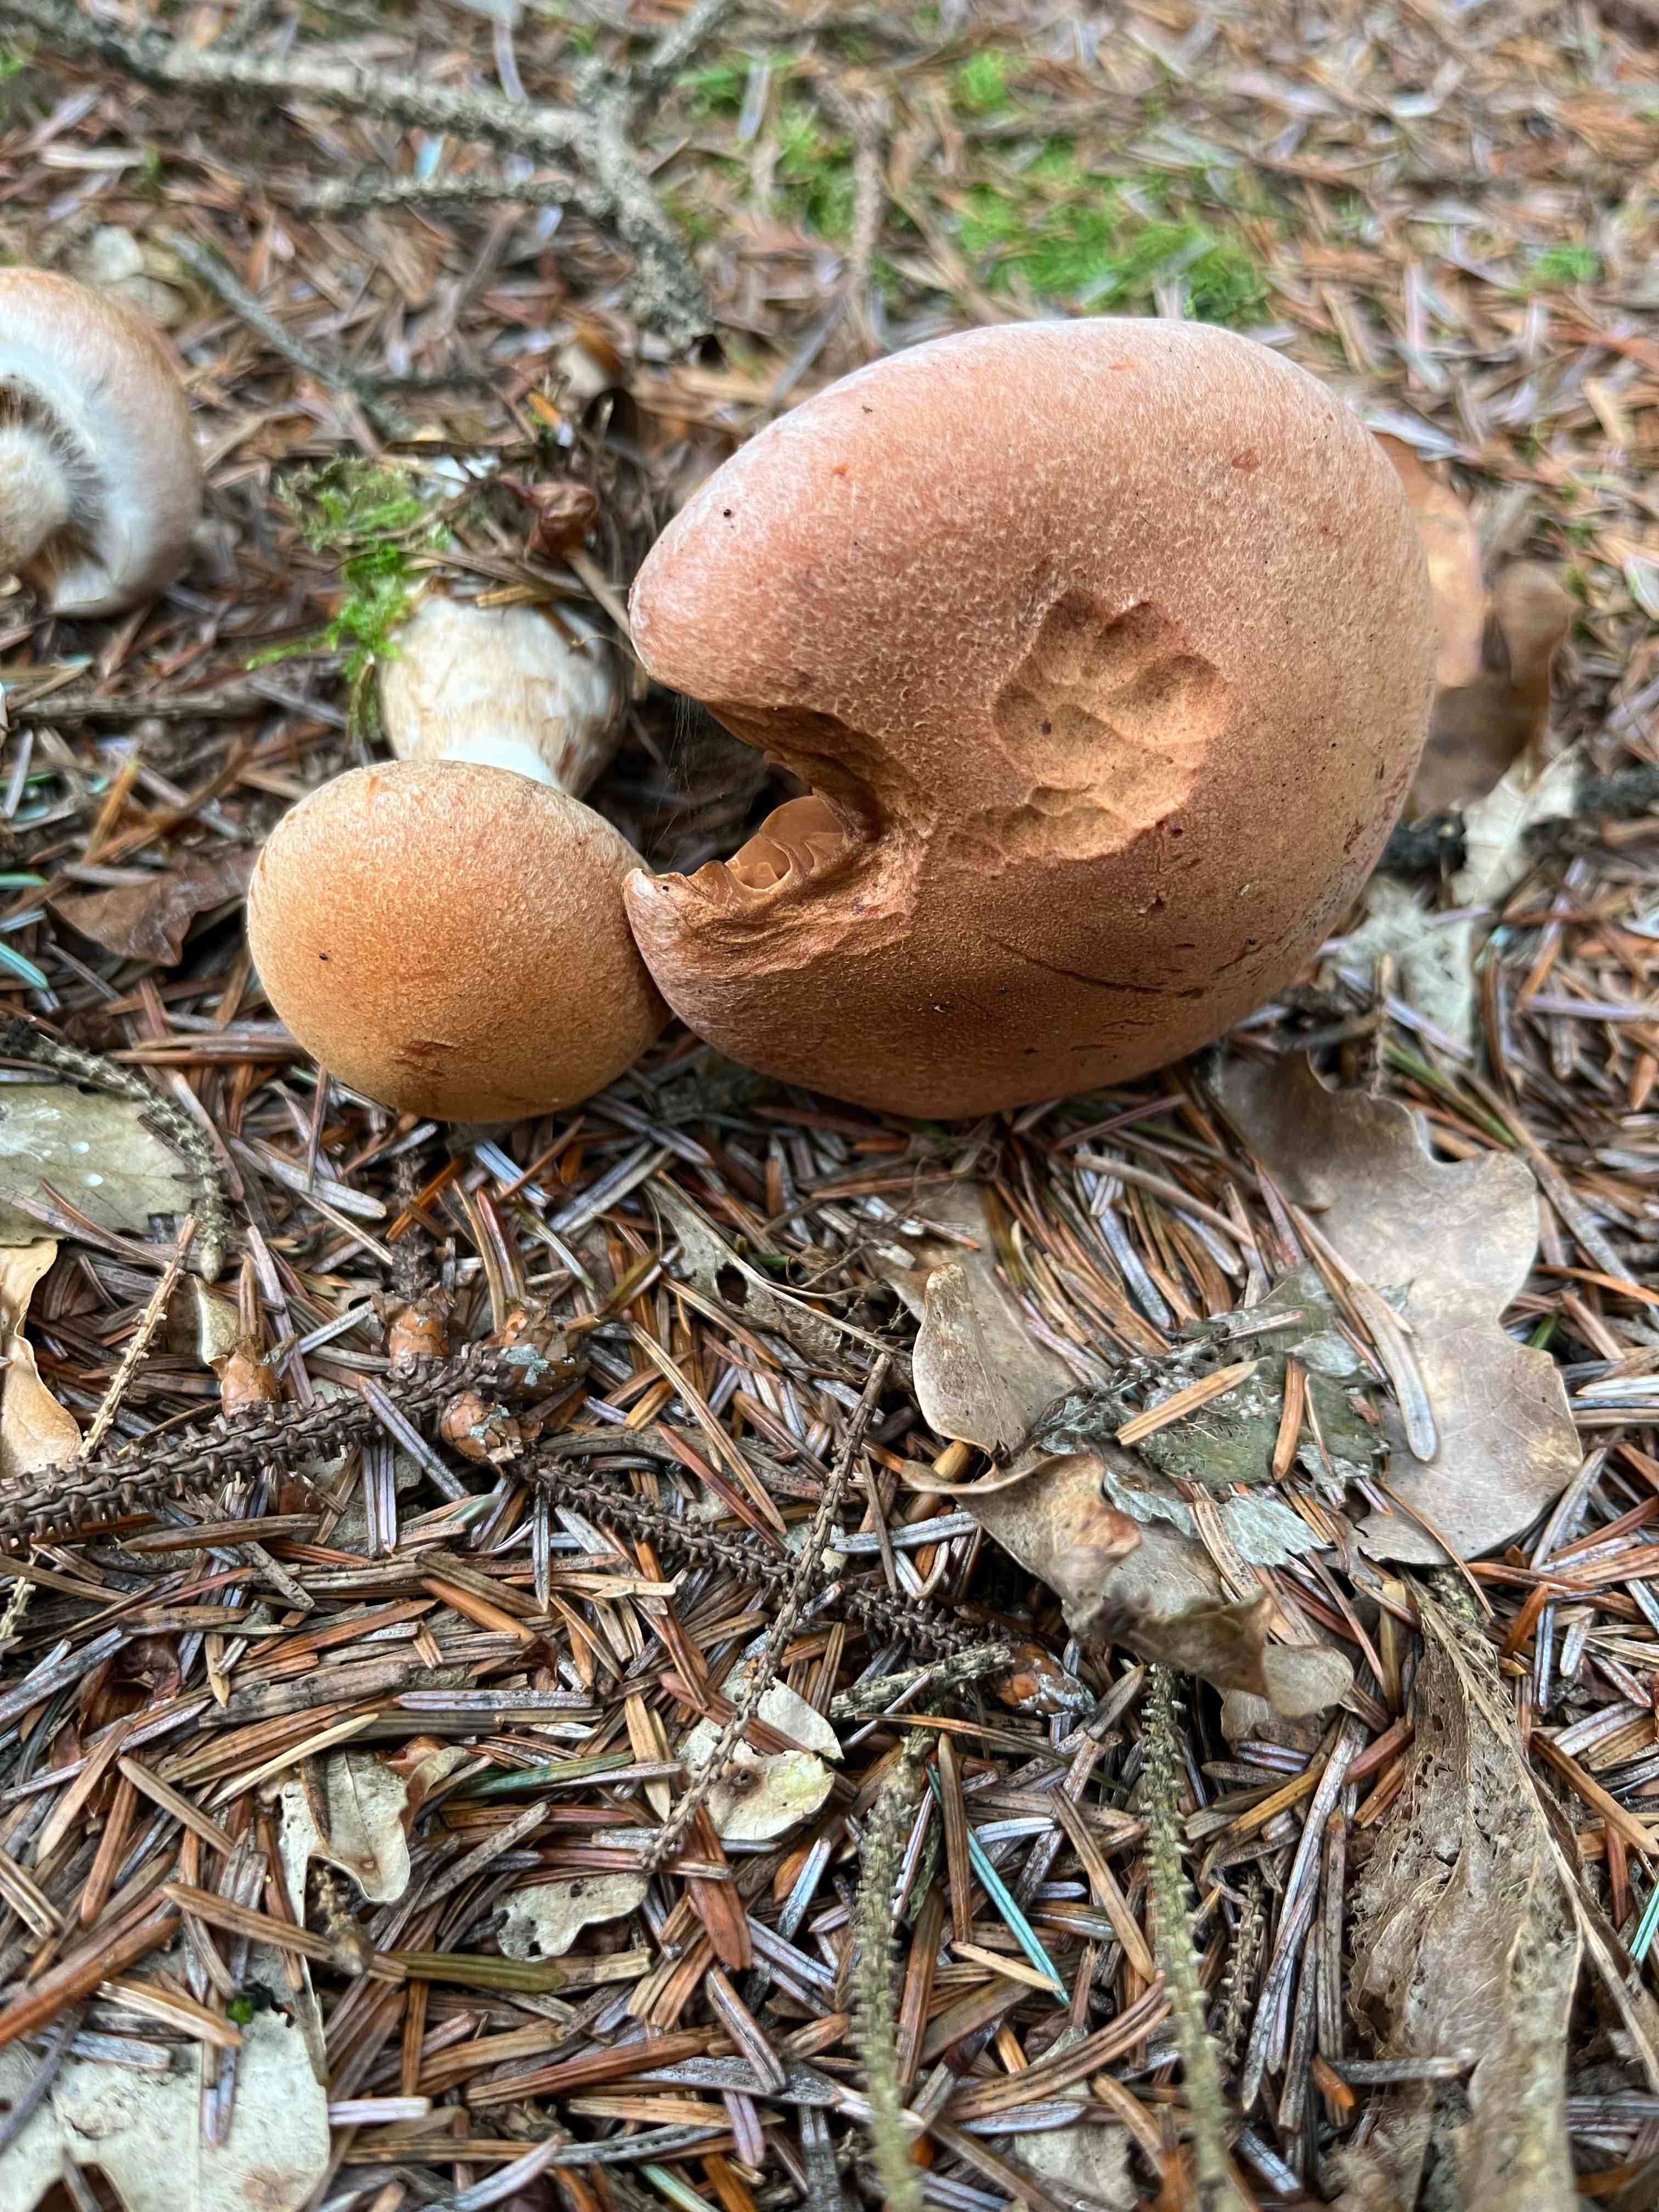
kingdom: Fungi
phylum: Basidiomycota
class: Agaricomycetes
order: Agaricales
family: Cortinariaceae
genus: Cortinarius
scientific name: Cortinarius
